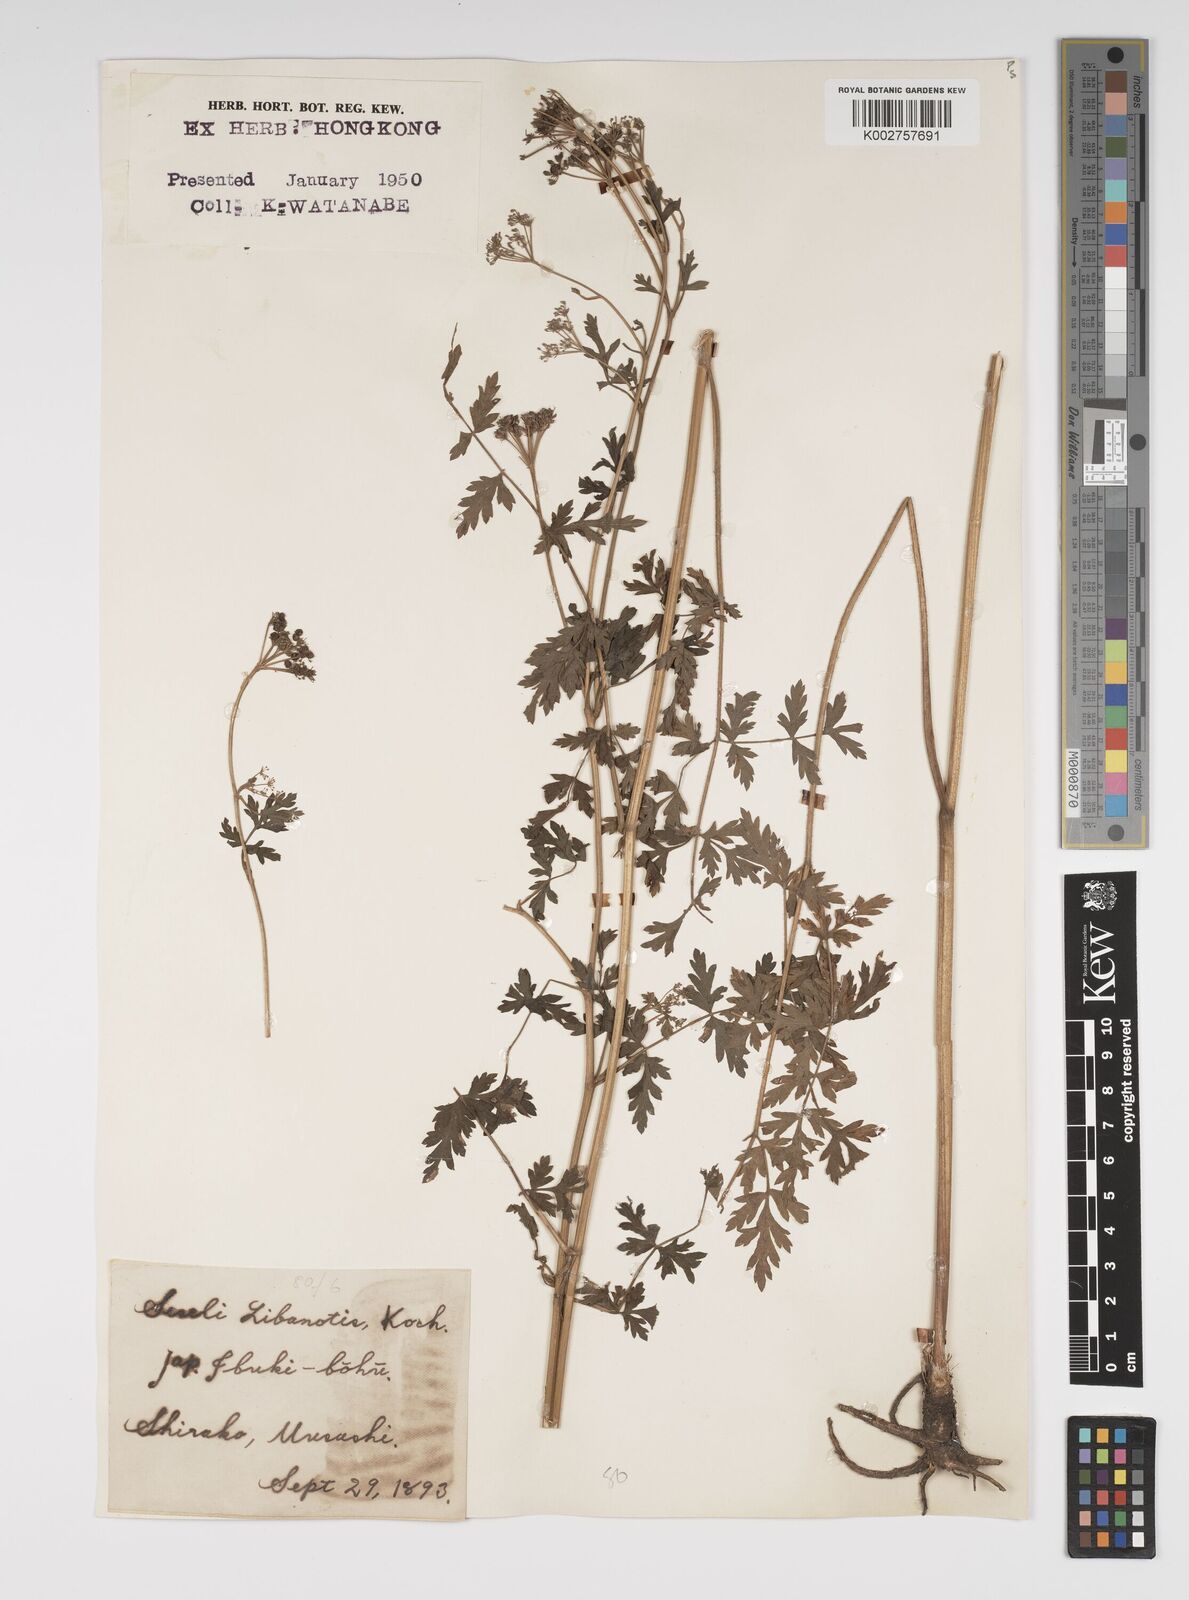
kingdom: Plantae
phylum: Tracheophyta
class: Magnoliopsida
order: Apiales
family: Apiaceae
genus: Seseli
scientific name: Seseli libanotis
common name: Mooncarrot
